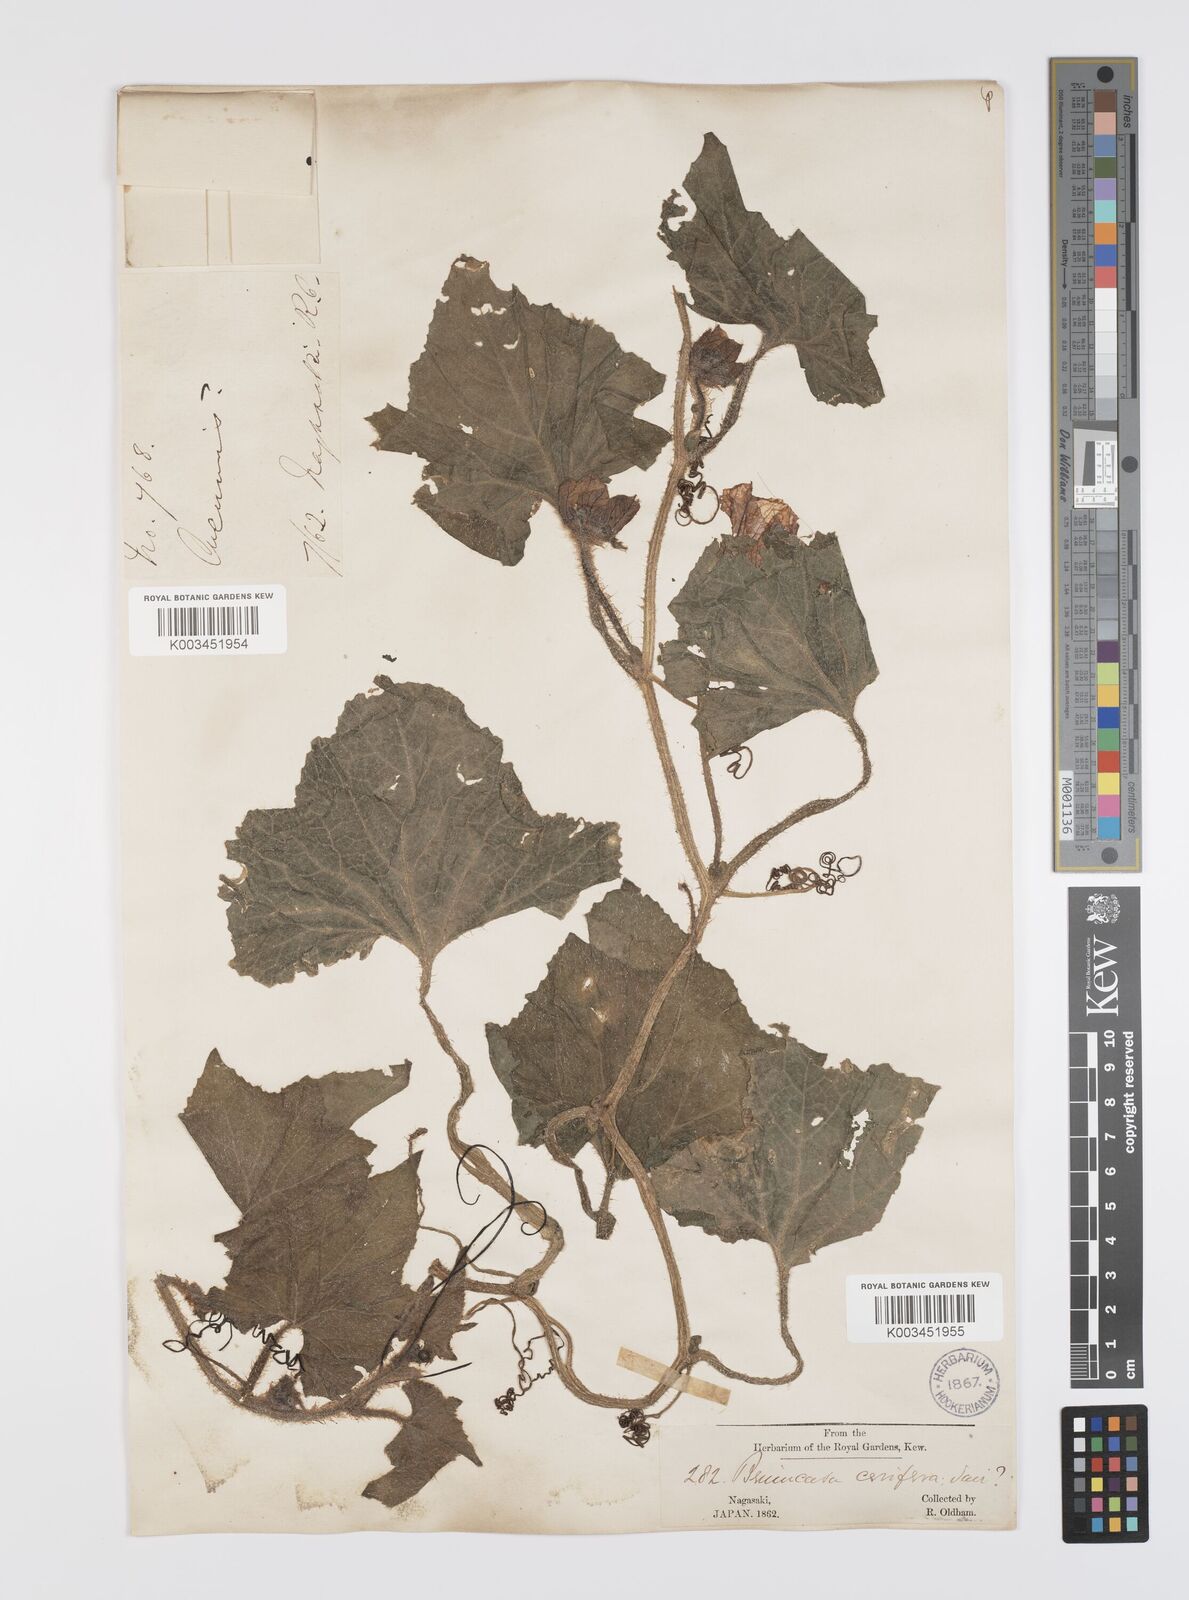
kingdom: Plantae
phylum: Tracheophyta
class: Magnoliopsida
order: Cucurbitales
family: Cucurbitaceae
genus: Benincasa
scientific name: Benincasa hispida
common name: Chinese-watermelon
